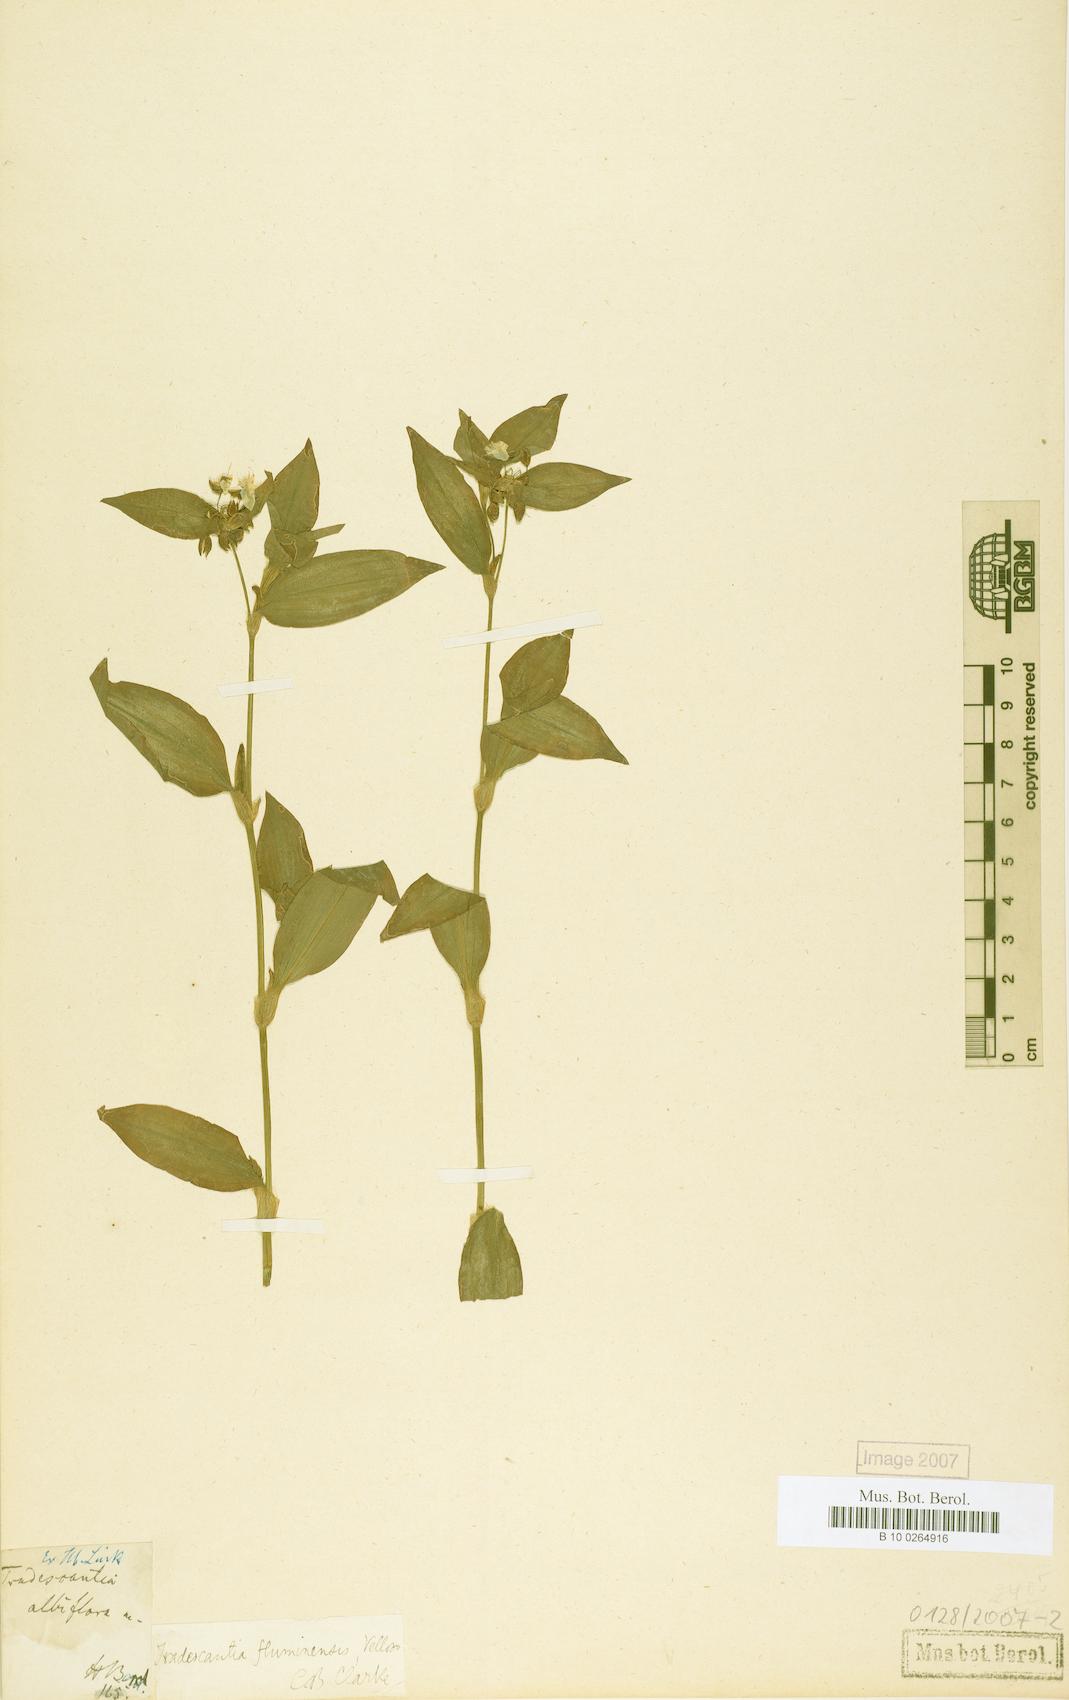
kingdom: Plantae
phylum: Tracheophyta
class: Liliopsida
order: Commelinales
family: Commelinaceae
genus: Tradescantia
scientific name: Tradescantia fluminensis
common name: Wandering-jew
